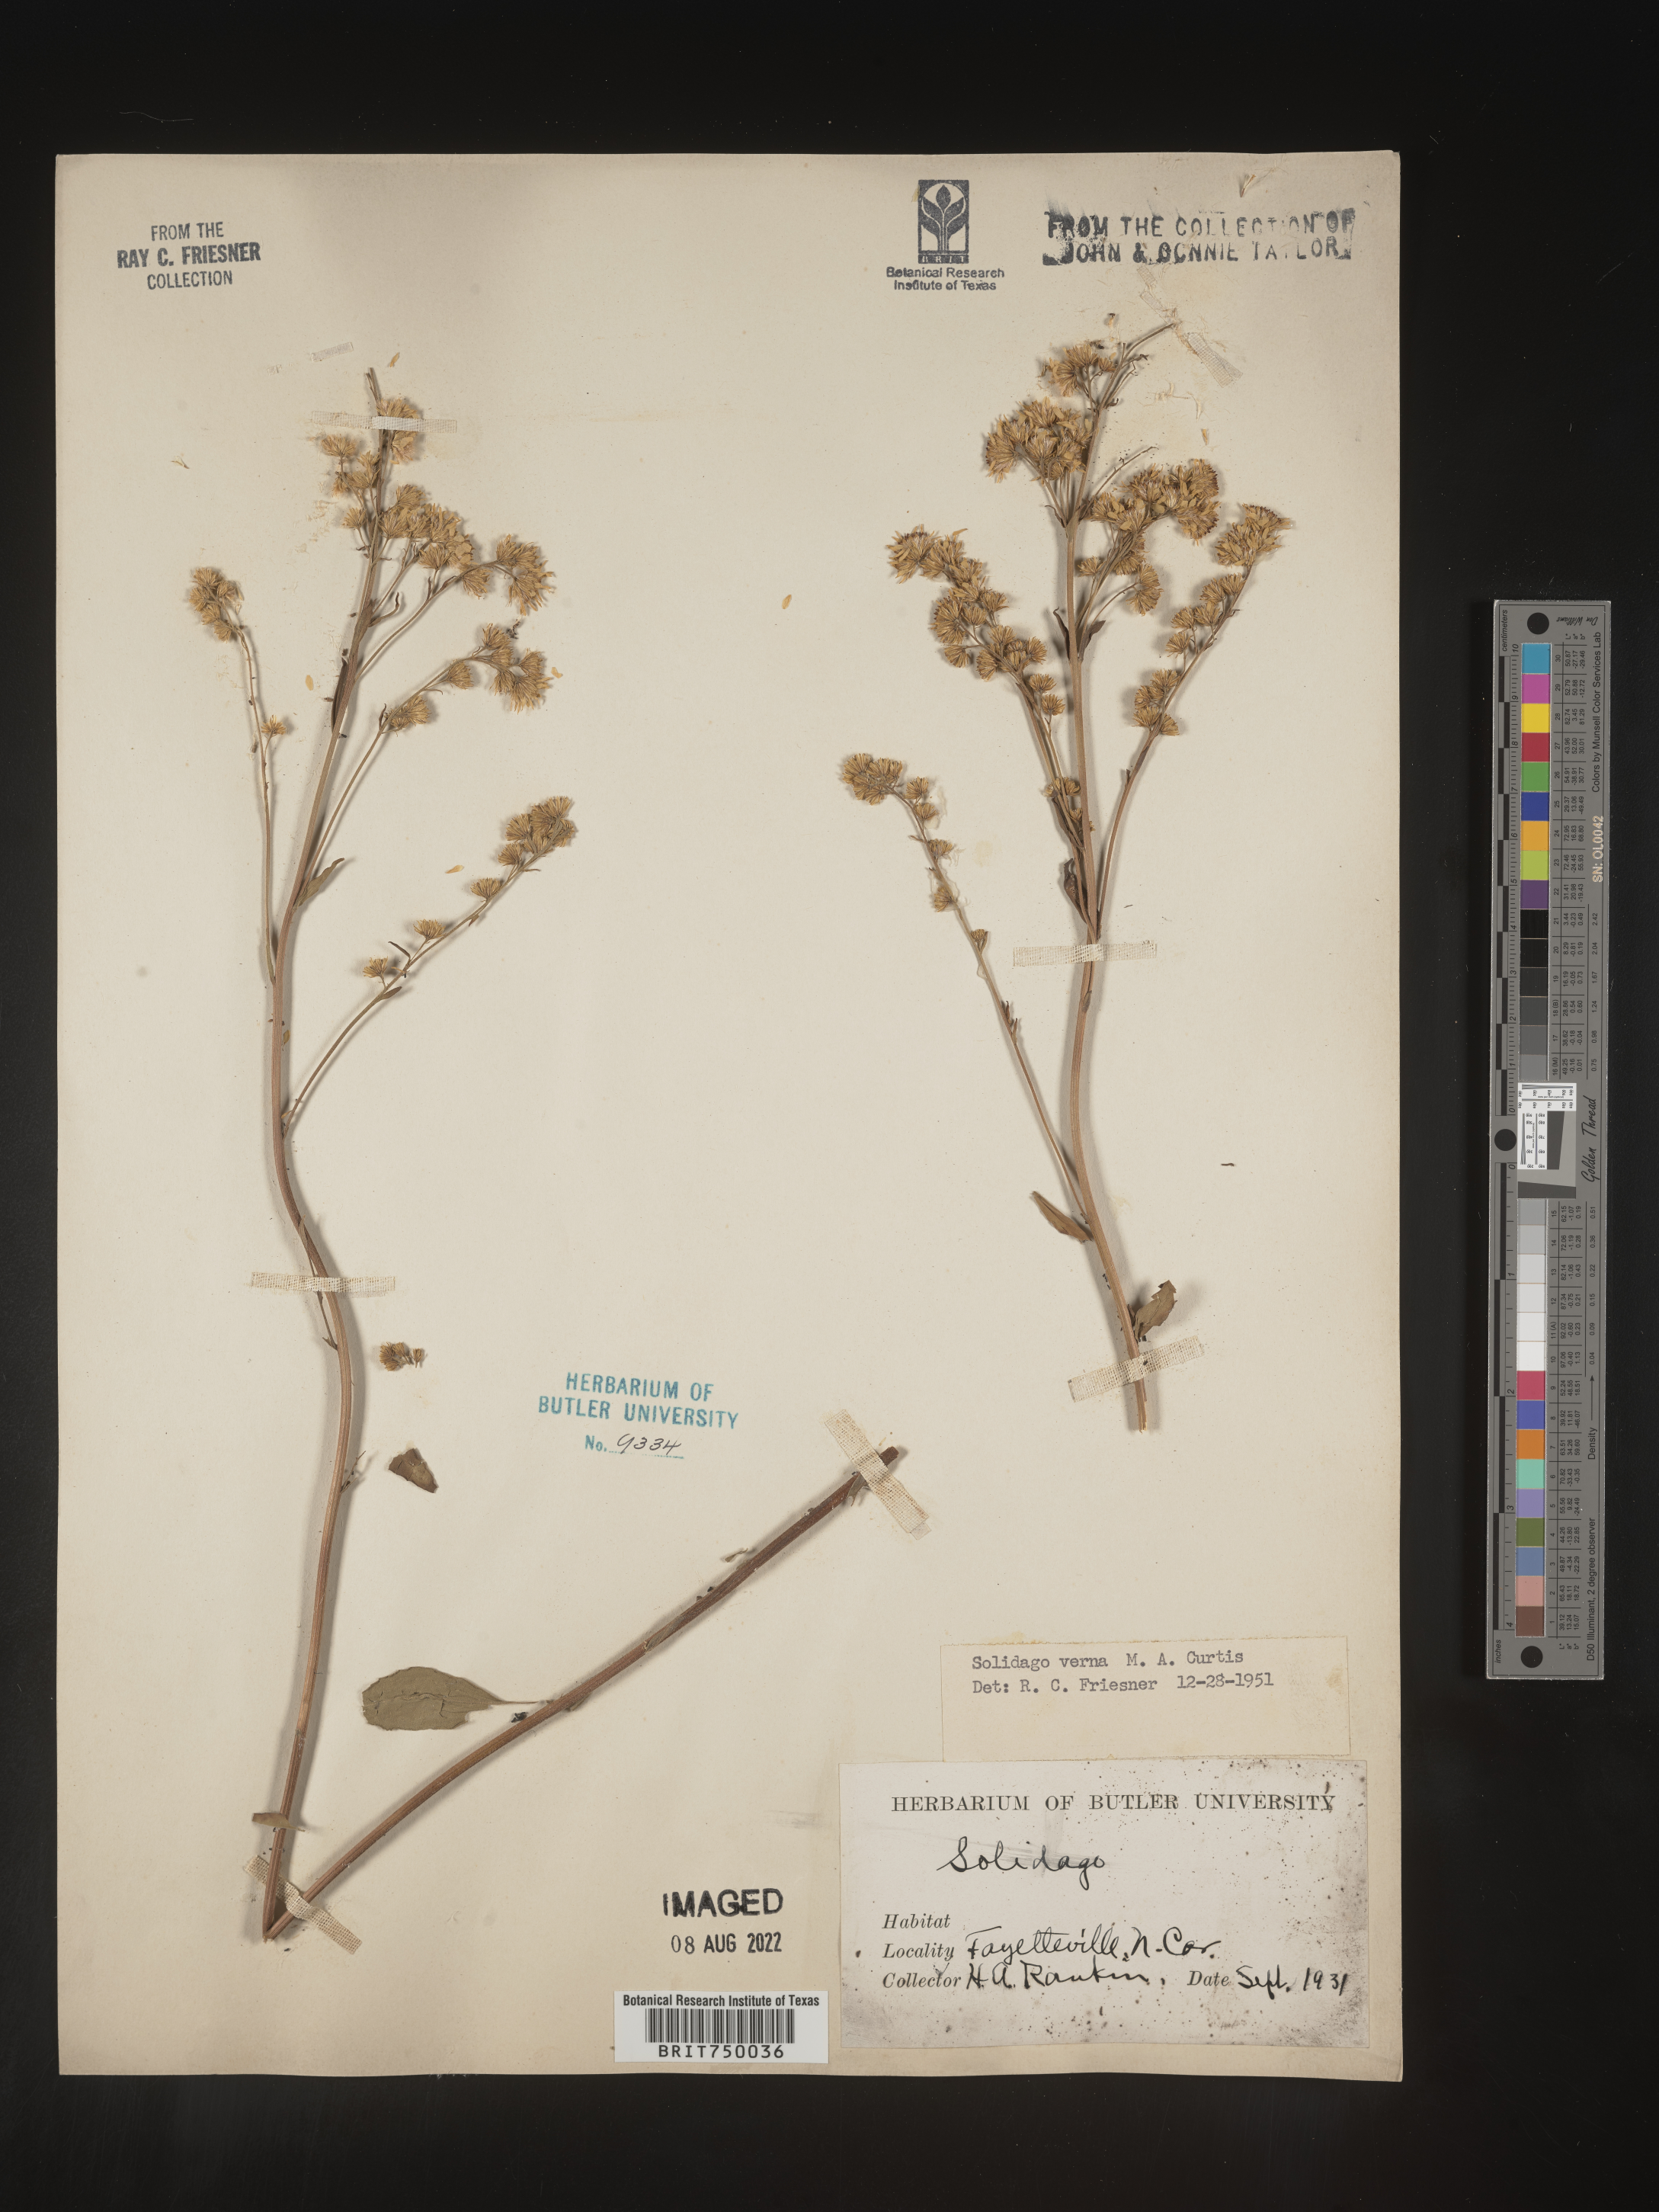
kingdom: Plantae
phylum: Tracheophyta
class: Magnoliopsida
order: Asterales
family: Asteraceae
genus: Solidago
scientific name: Solidago verna
